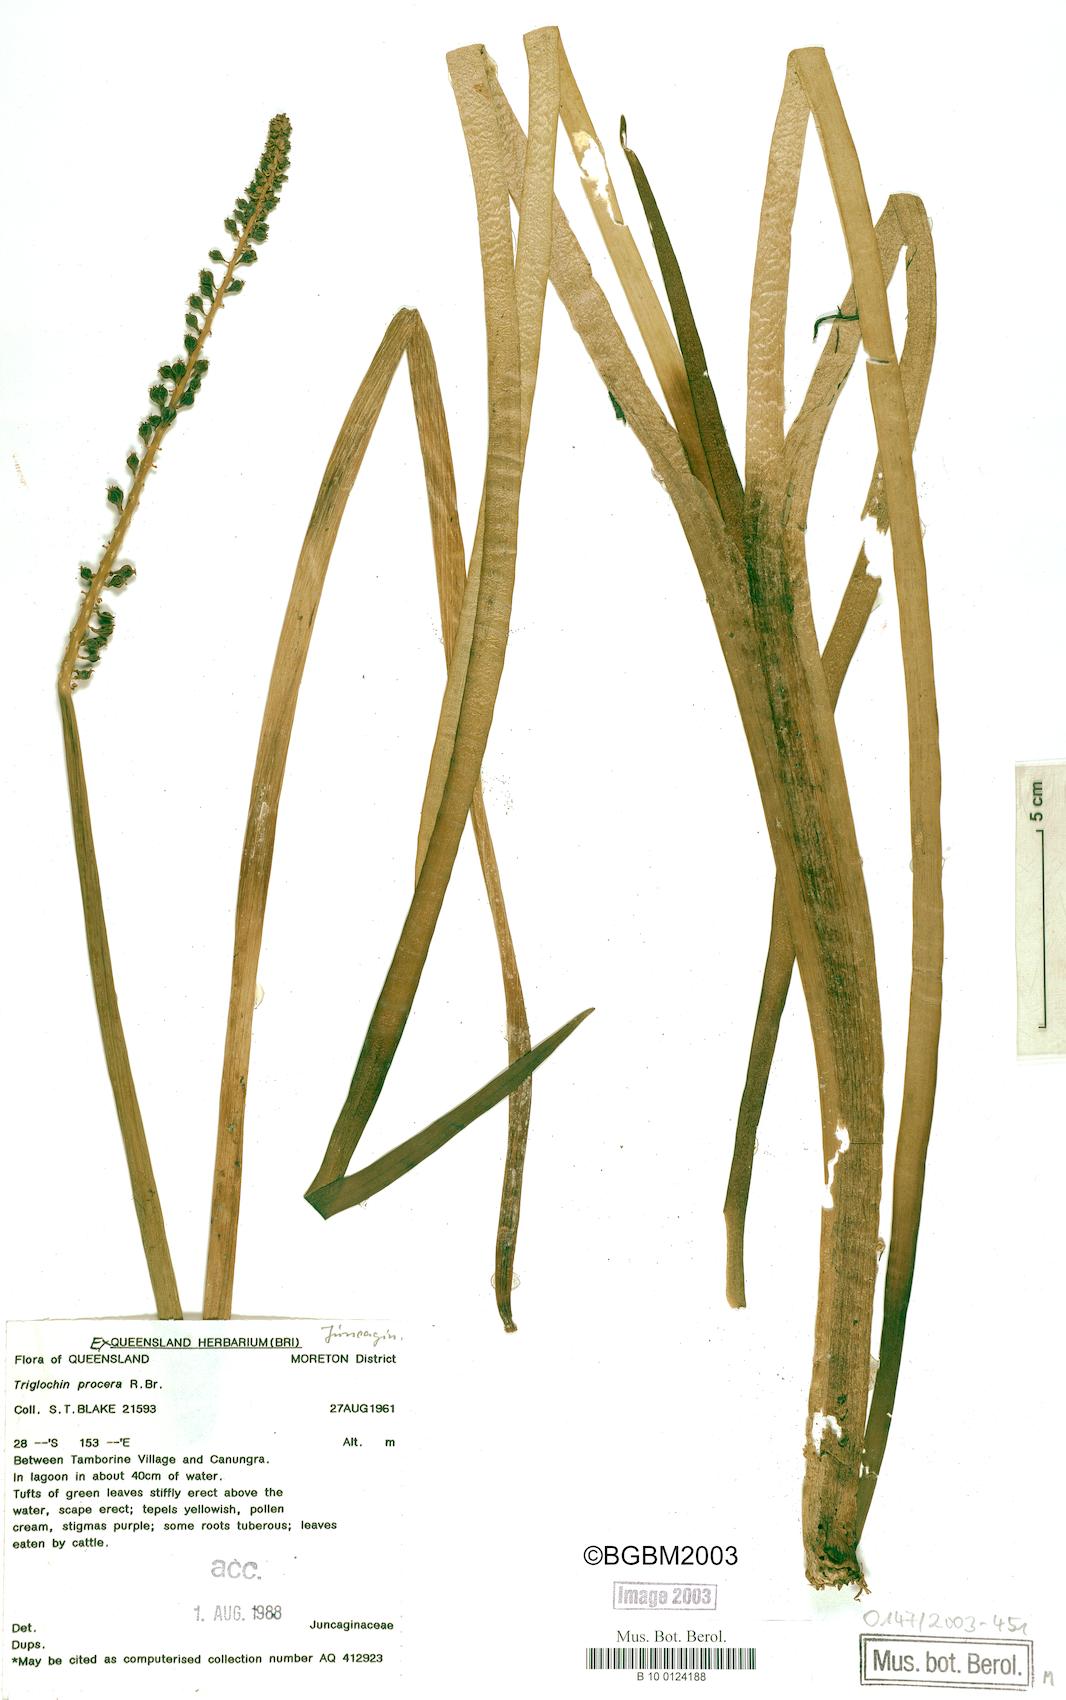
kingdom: Plantae
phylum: Tracheophyta
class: Liliopsida
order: Alismatales
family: Juncaginaceae
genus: Cycnogeton
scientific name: Cycnogeton procerum
